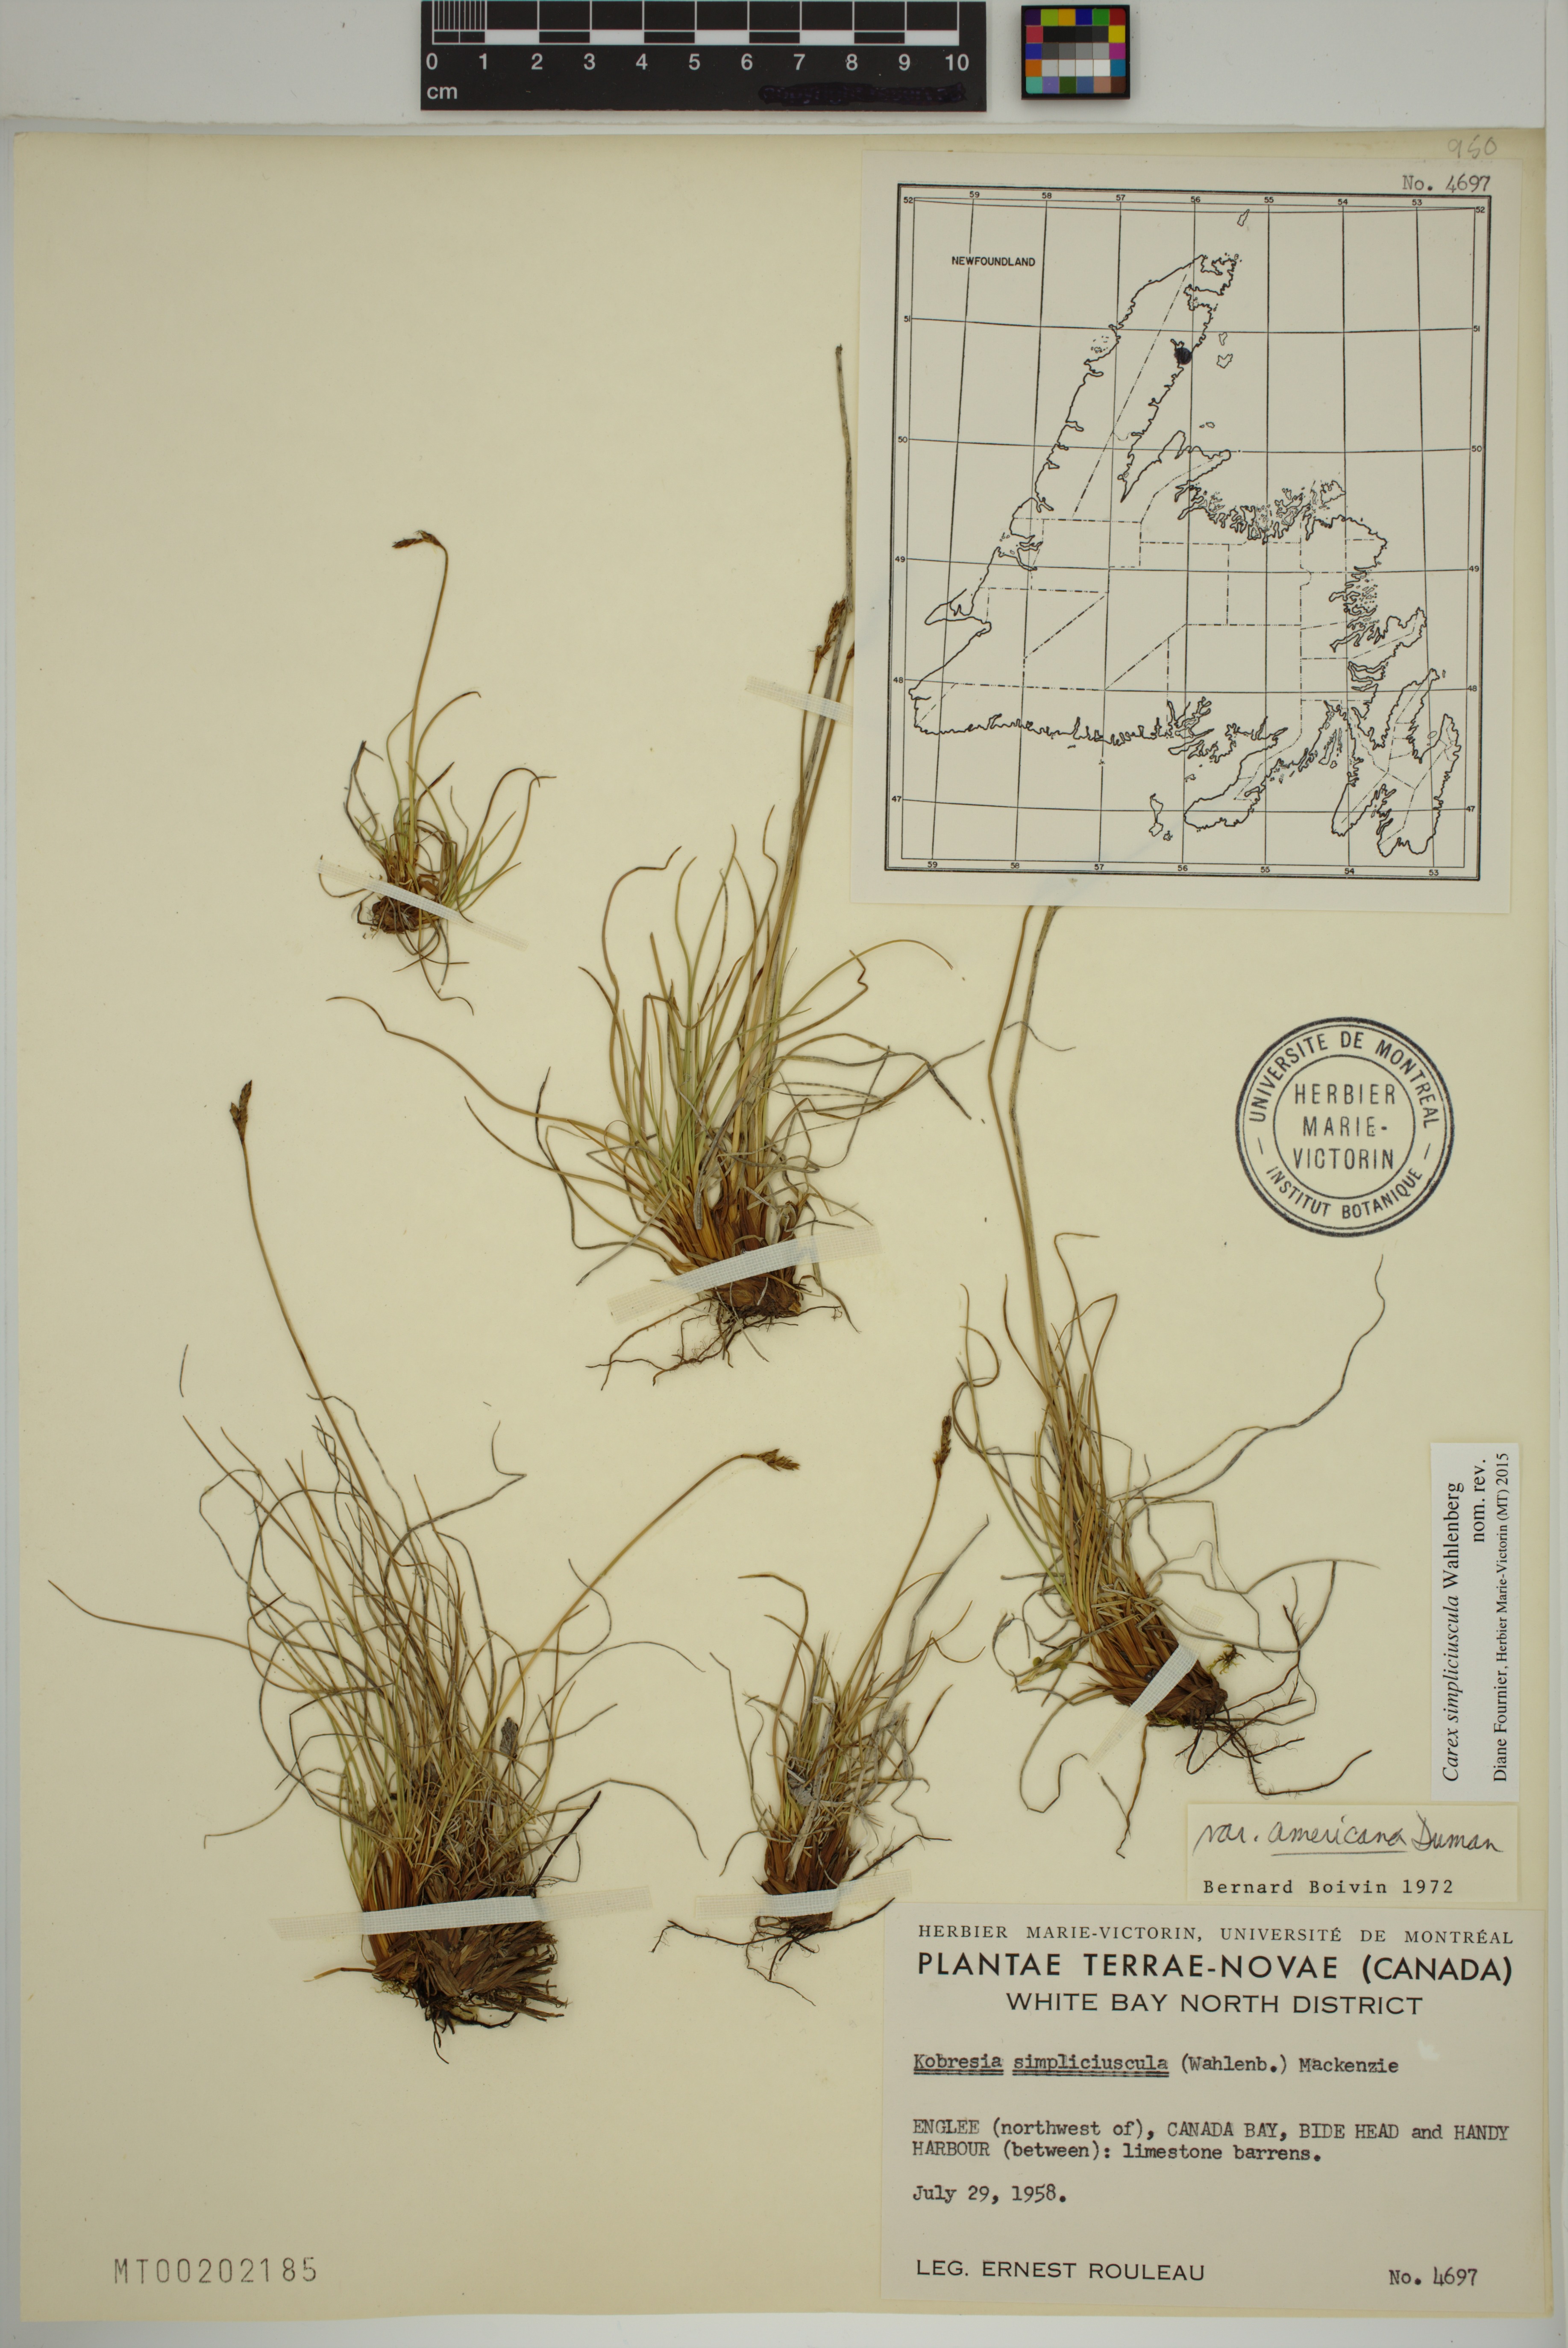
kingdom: Plantae
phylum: Tracheophyta
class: Liliopsida
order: Poales
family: Cyperaceae
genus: Carex
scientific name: Carex simpliciuscula
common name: Simple bog sedge
